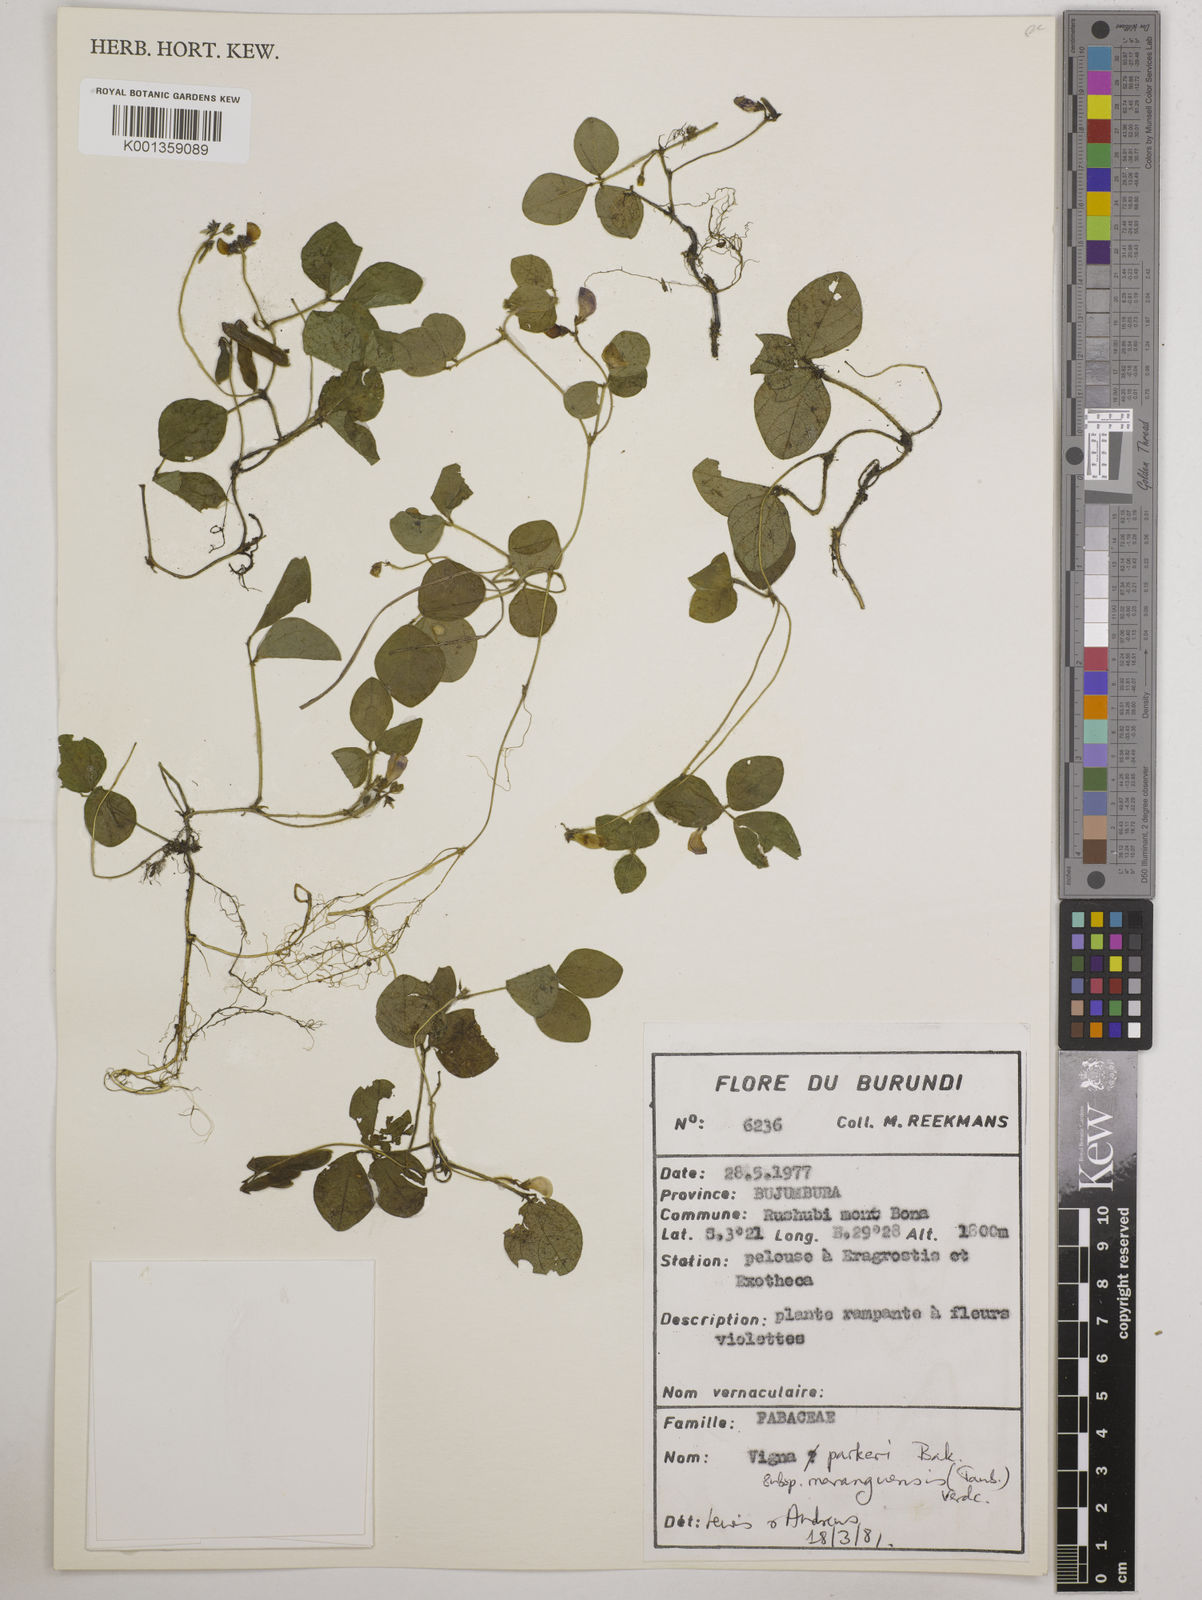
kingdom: Plantae
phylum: Tracheophyta
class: Magnoliopsida
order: Fabales
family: Fabaceae
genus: Vigna
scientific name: Vigna
